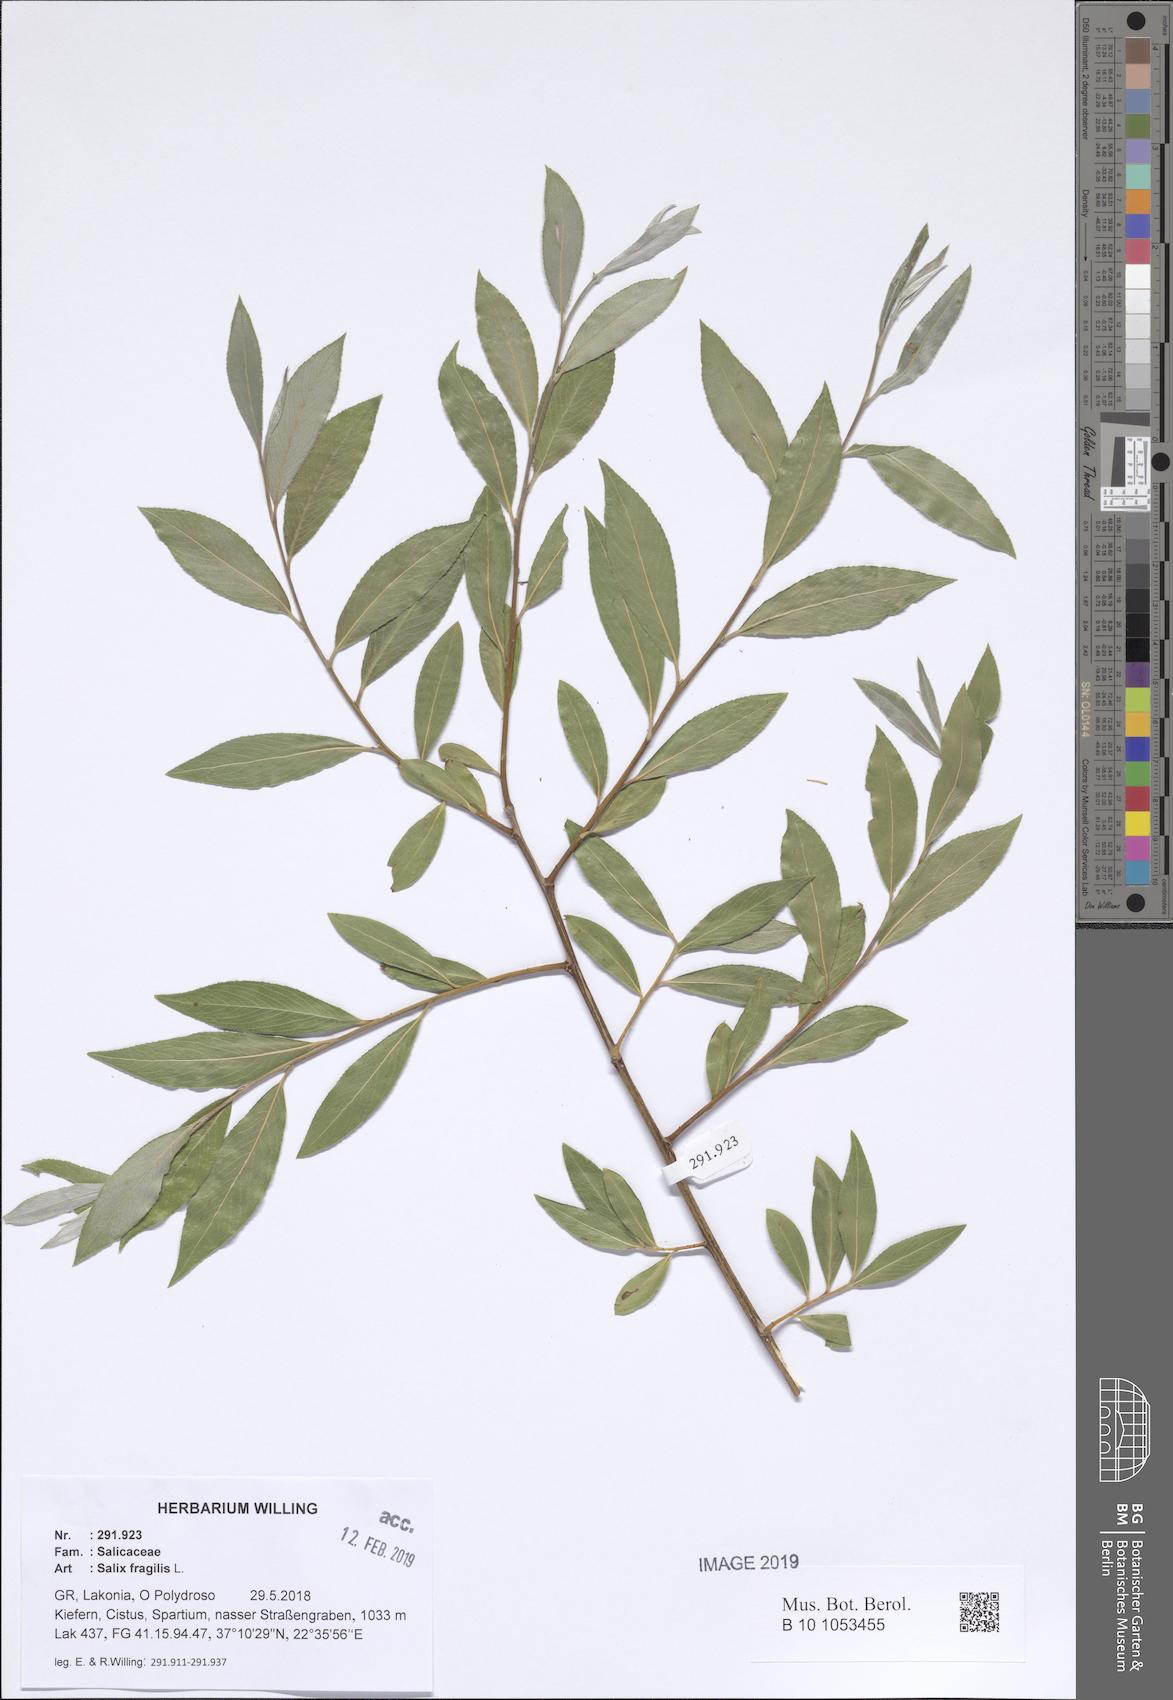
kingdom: Plantae
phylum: Tracheophyta
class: Magnoliopsida
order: Malpighiales
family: Salicaceae
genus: Salix
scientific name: Salix fragilis
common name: Crack willow
